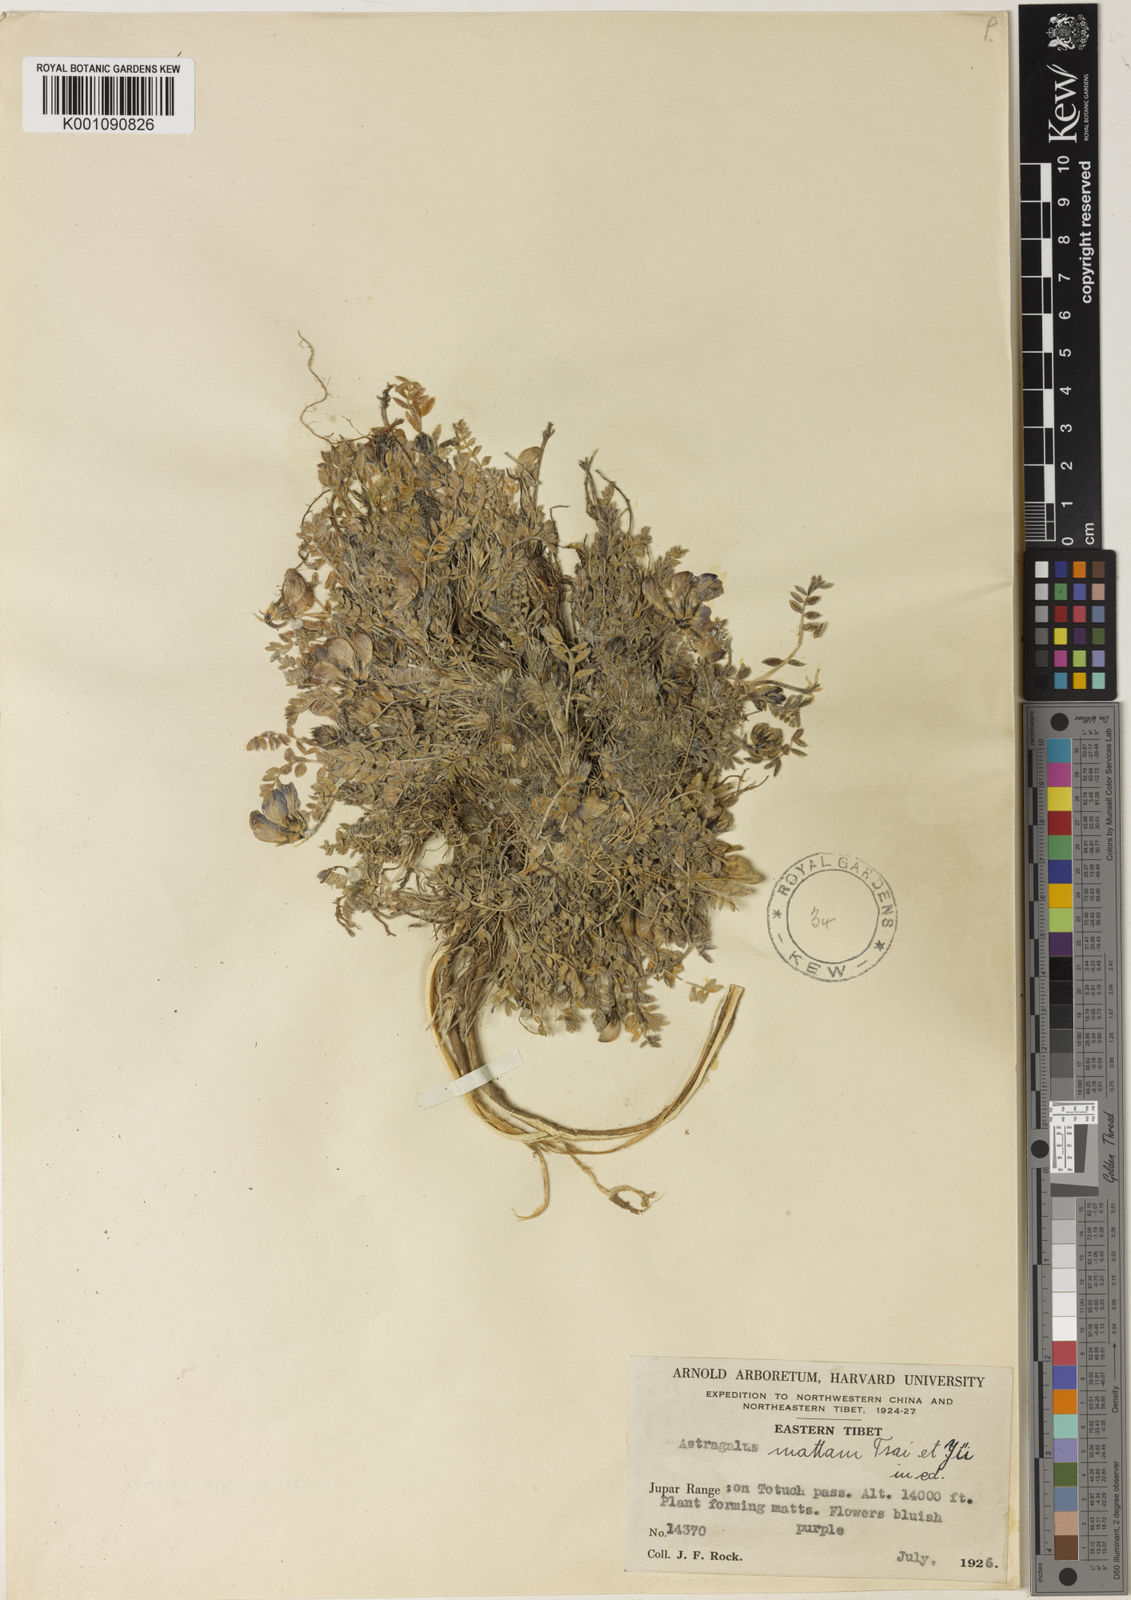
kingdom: Plantae
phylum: Tracheophyta
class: Magnoliopsida
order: Fabales
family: Fabaceae
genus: Astragalus
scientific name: Astragalus
